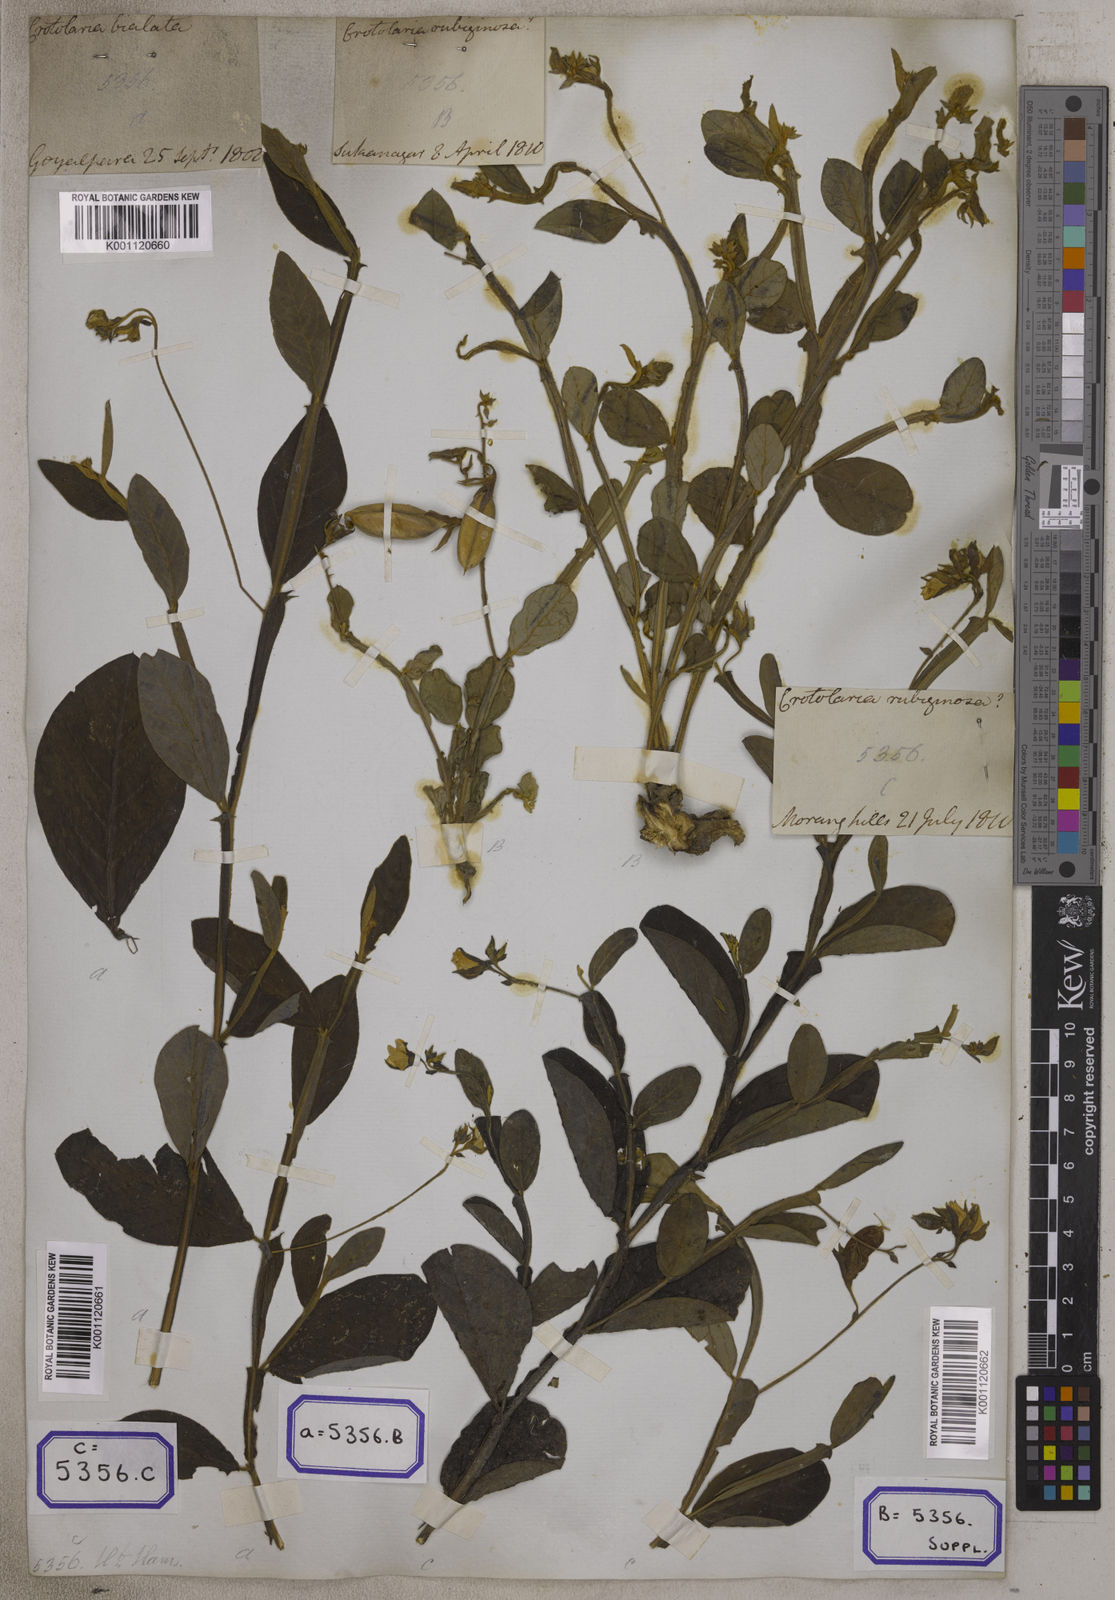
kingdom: Plantae
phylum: Tracheophyta
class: Magnoliopsida
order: Fabales
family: Fabaceae
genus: Crotalaria
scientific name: Crotalaria alata
